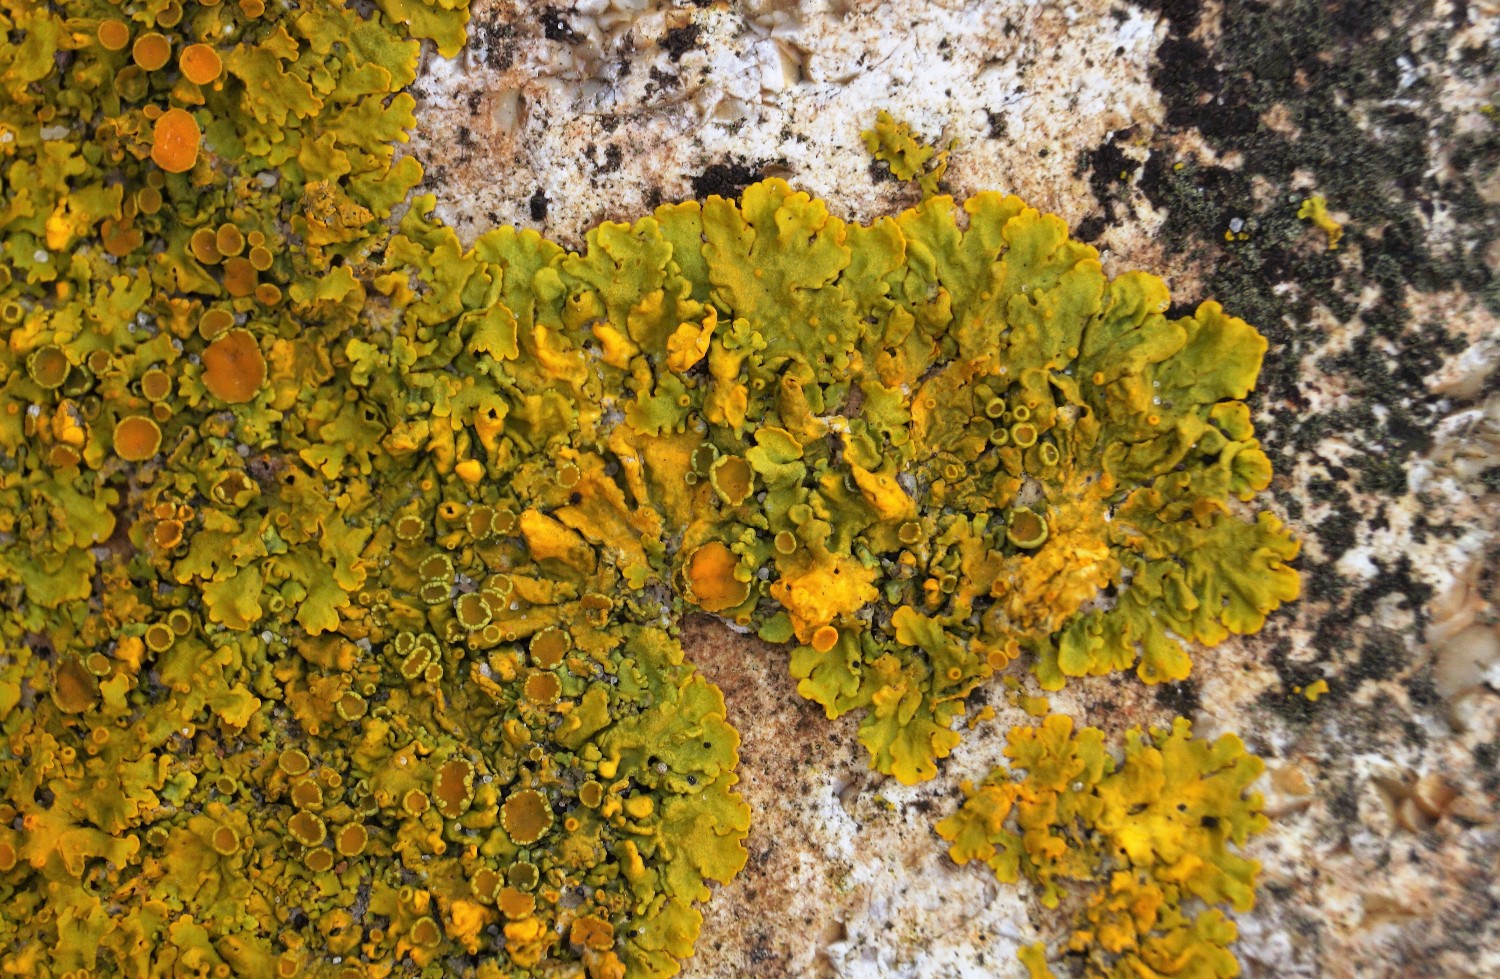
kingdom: Fungi
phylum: Ascomycota
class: Lecanoromycetes
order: Teloschistales
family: Teloschistaceae
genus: Xanthoria
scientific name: Xanthoria parietina
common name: almindelig væggelav
